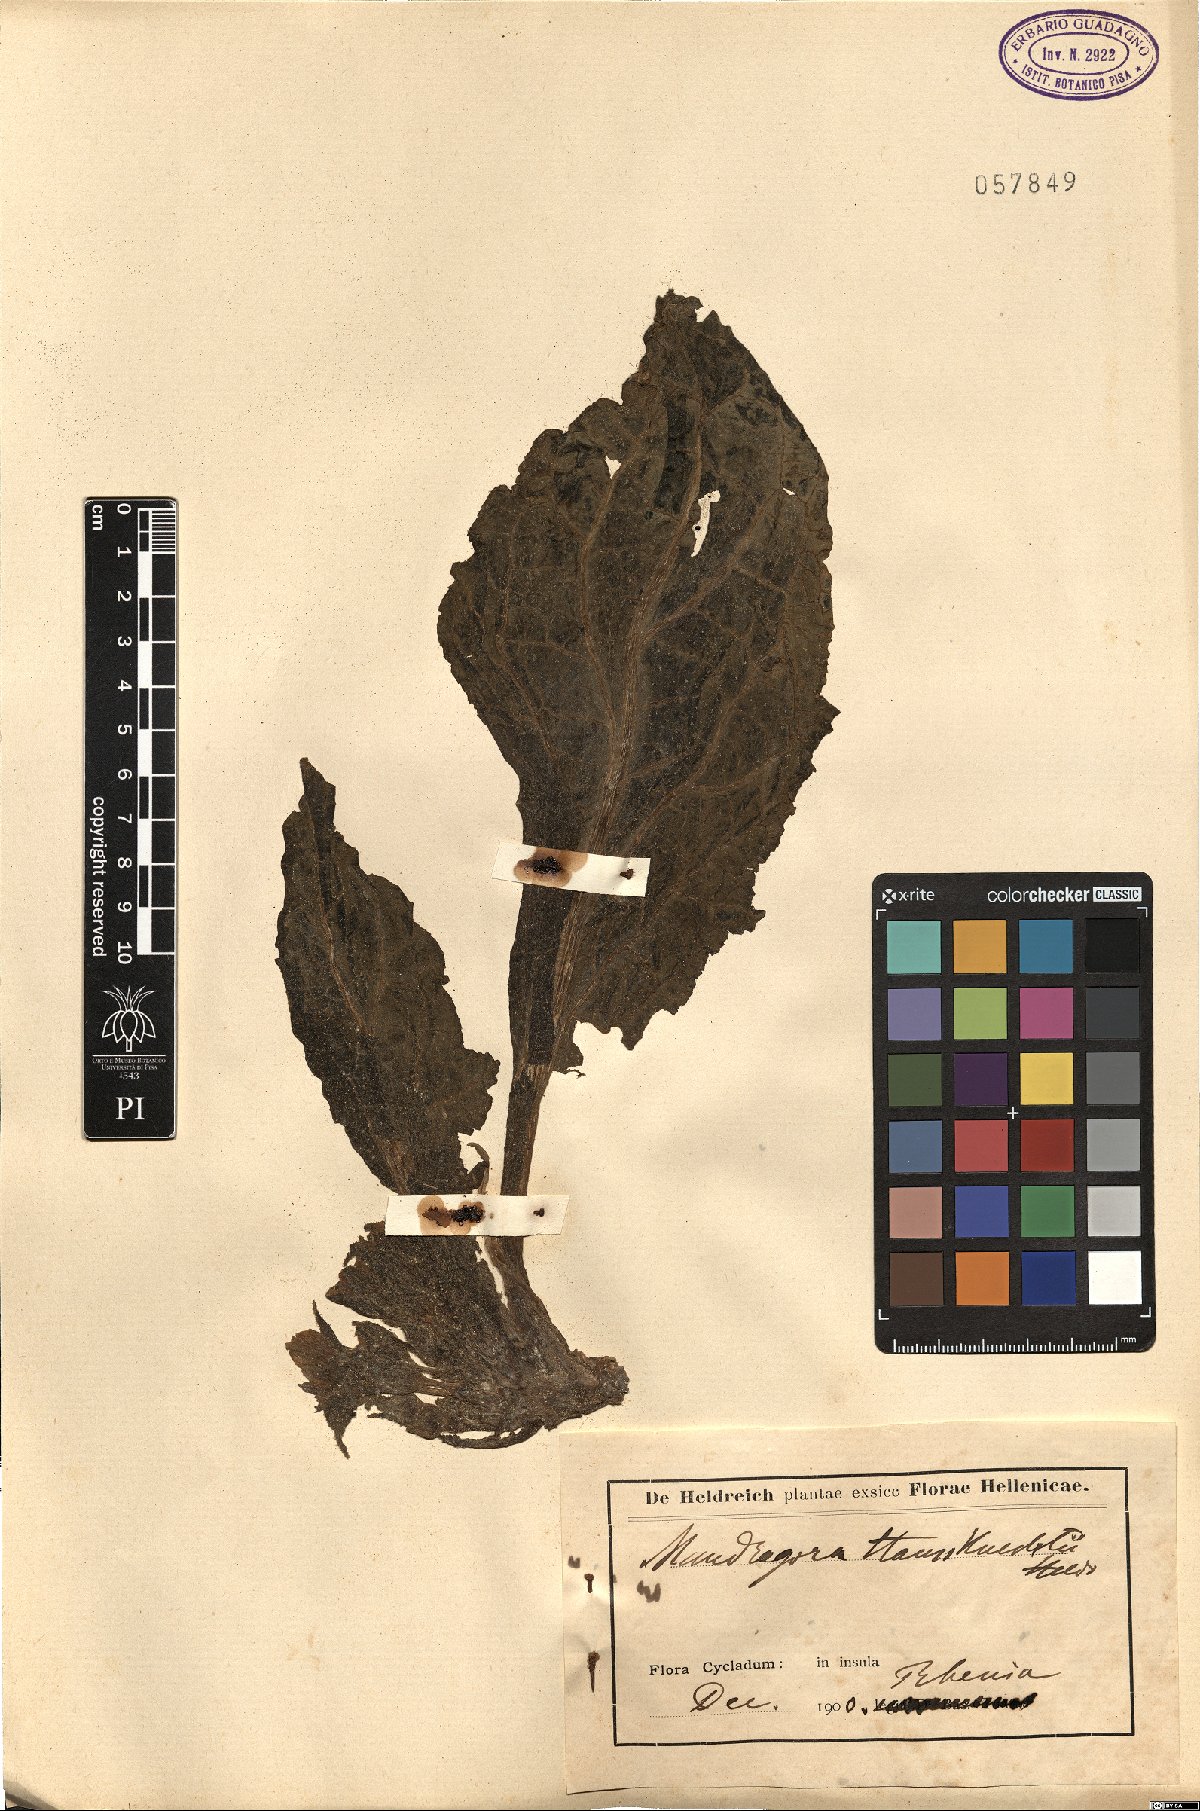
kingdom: Plantae
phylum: Tracheophyta
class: Magnoliopsida
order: Solanales
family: Solanaceae
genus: Mandragora
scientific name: Mandragora officinarum
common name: Mandrake
